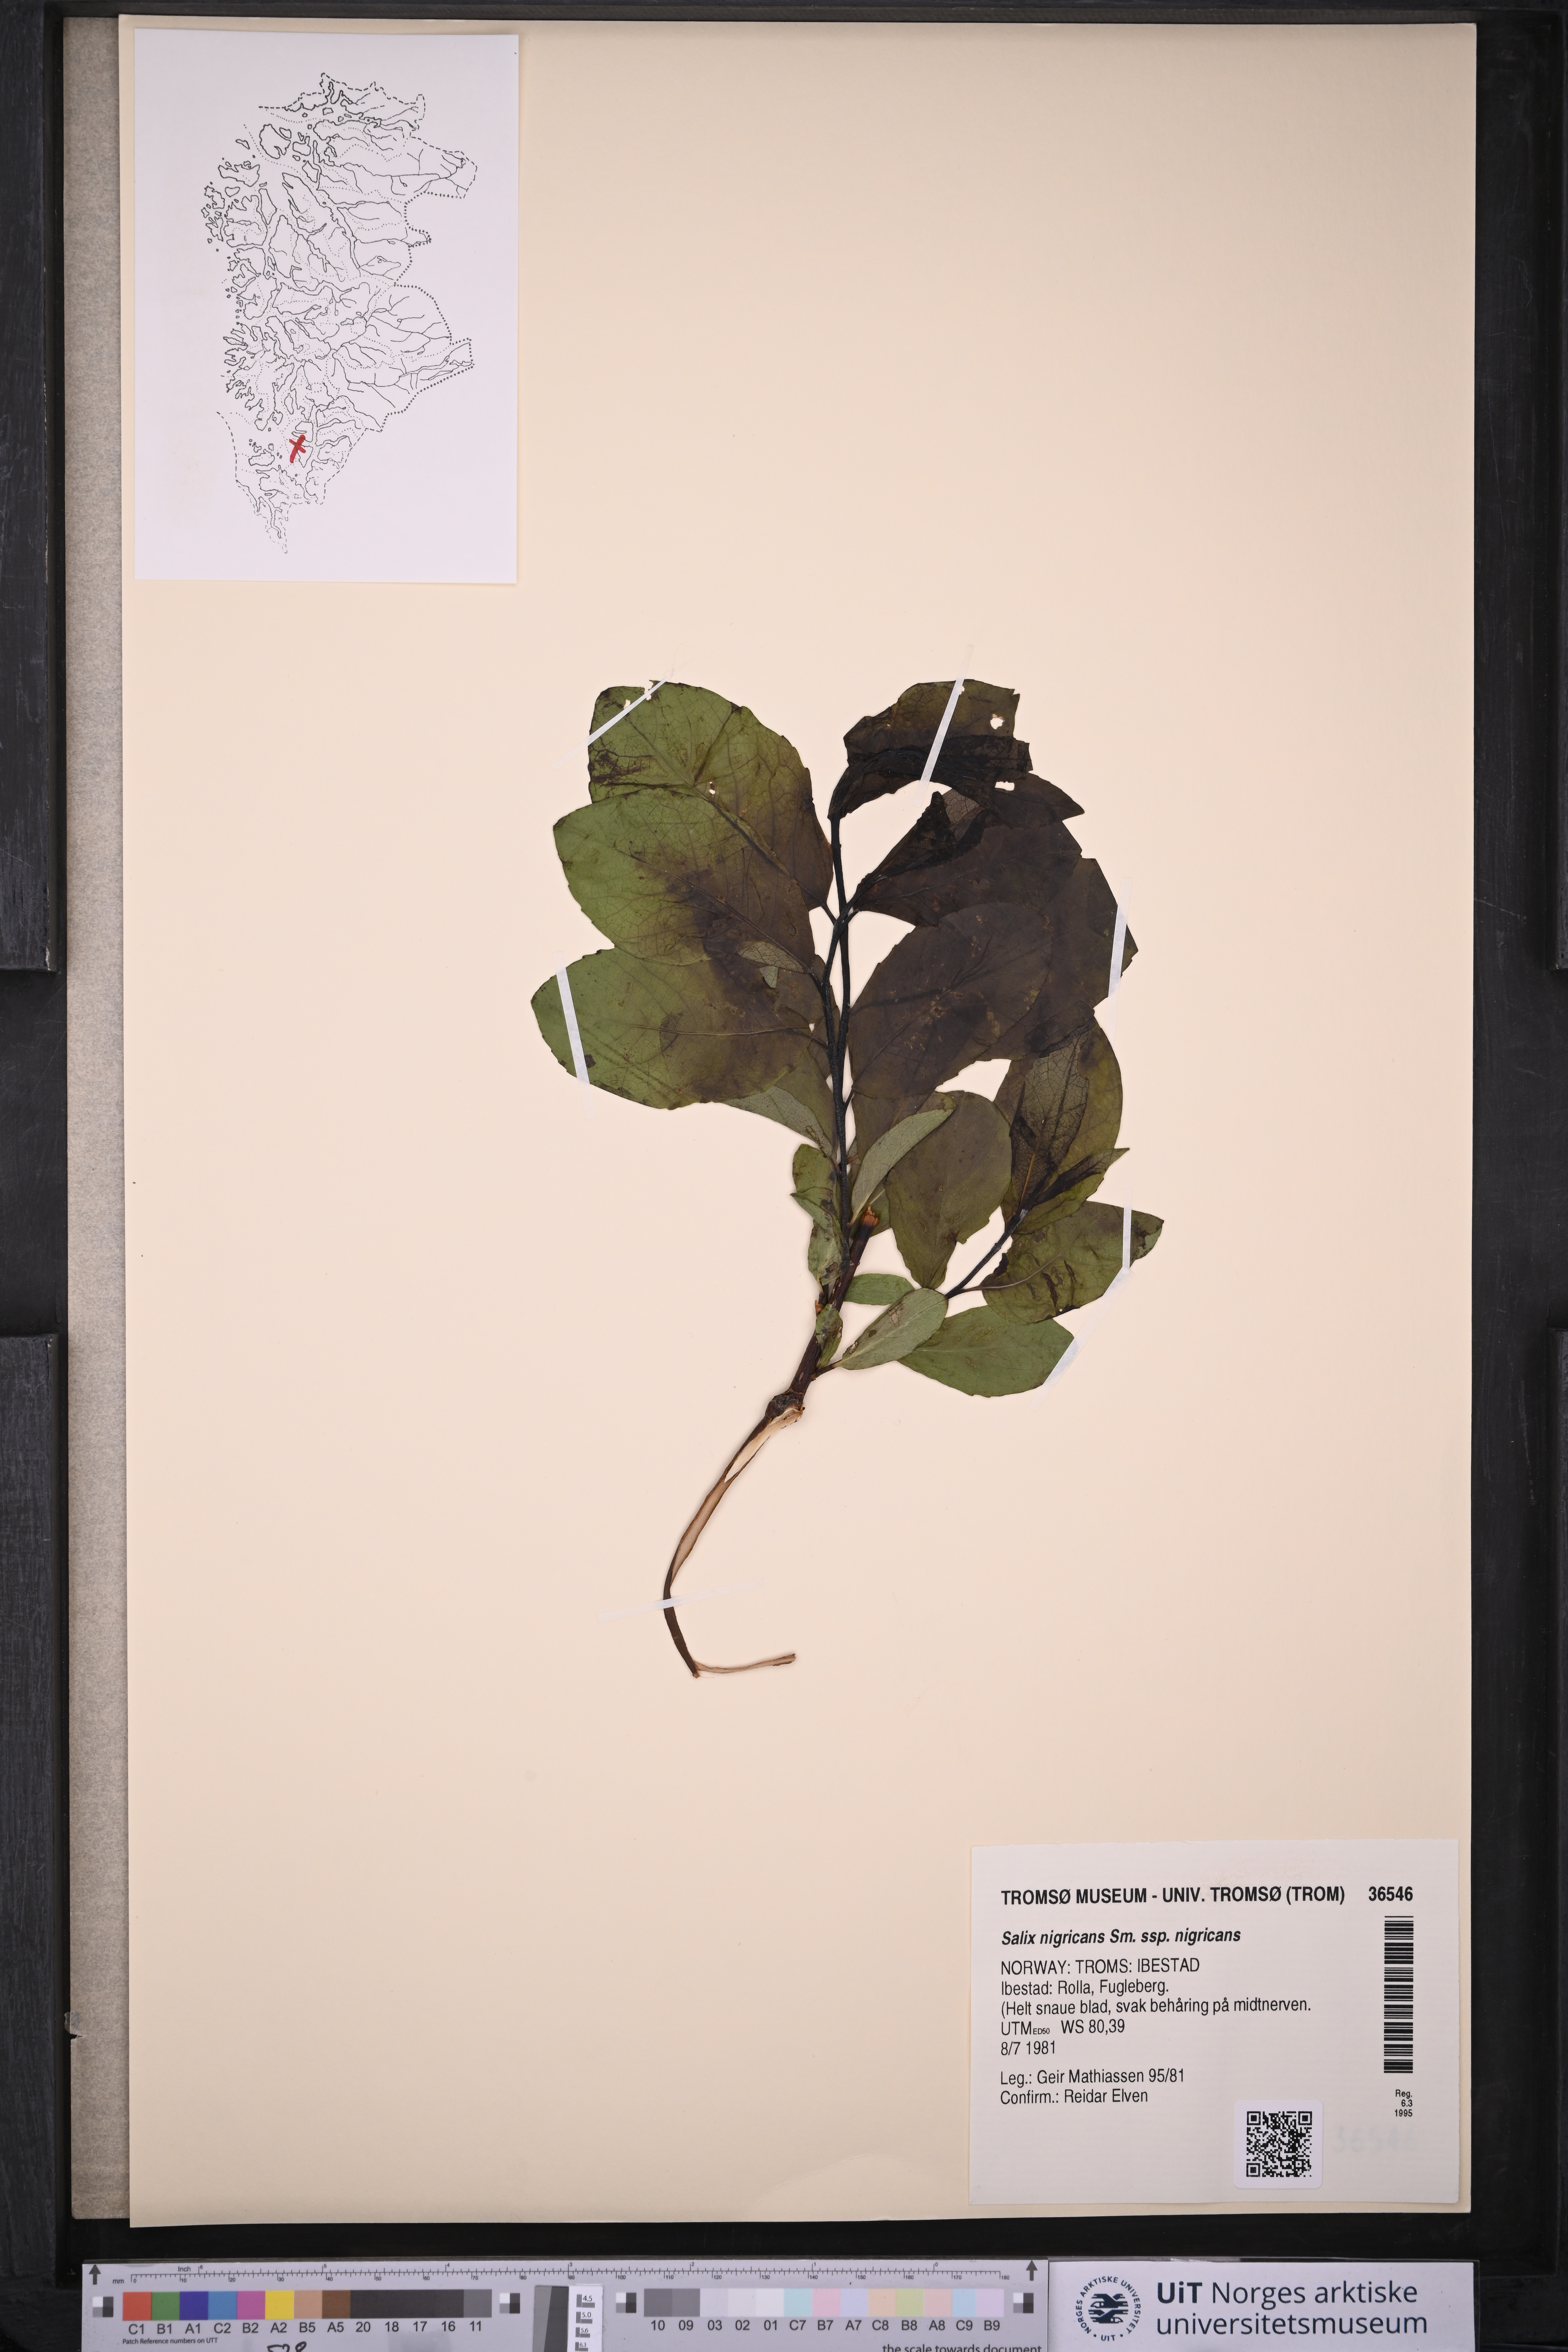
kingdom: Plantae
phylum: Tracheophyta
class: Magnoliopsida
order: Malpighiales
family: Salicaceae
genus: Salix
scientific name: Salix myrsinifolia
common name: Dark-leaved willow
